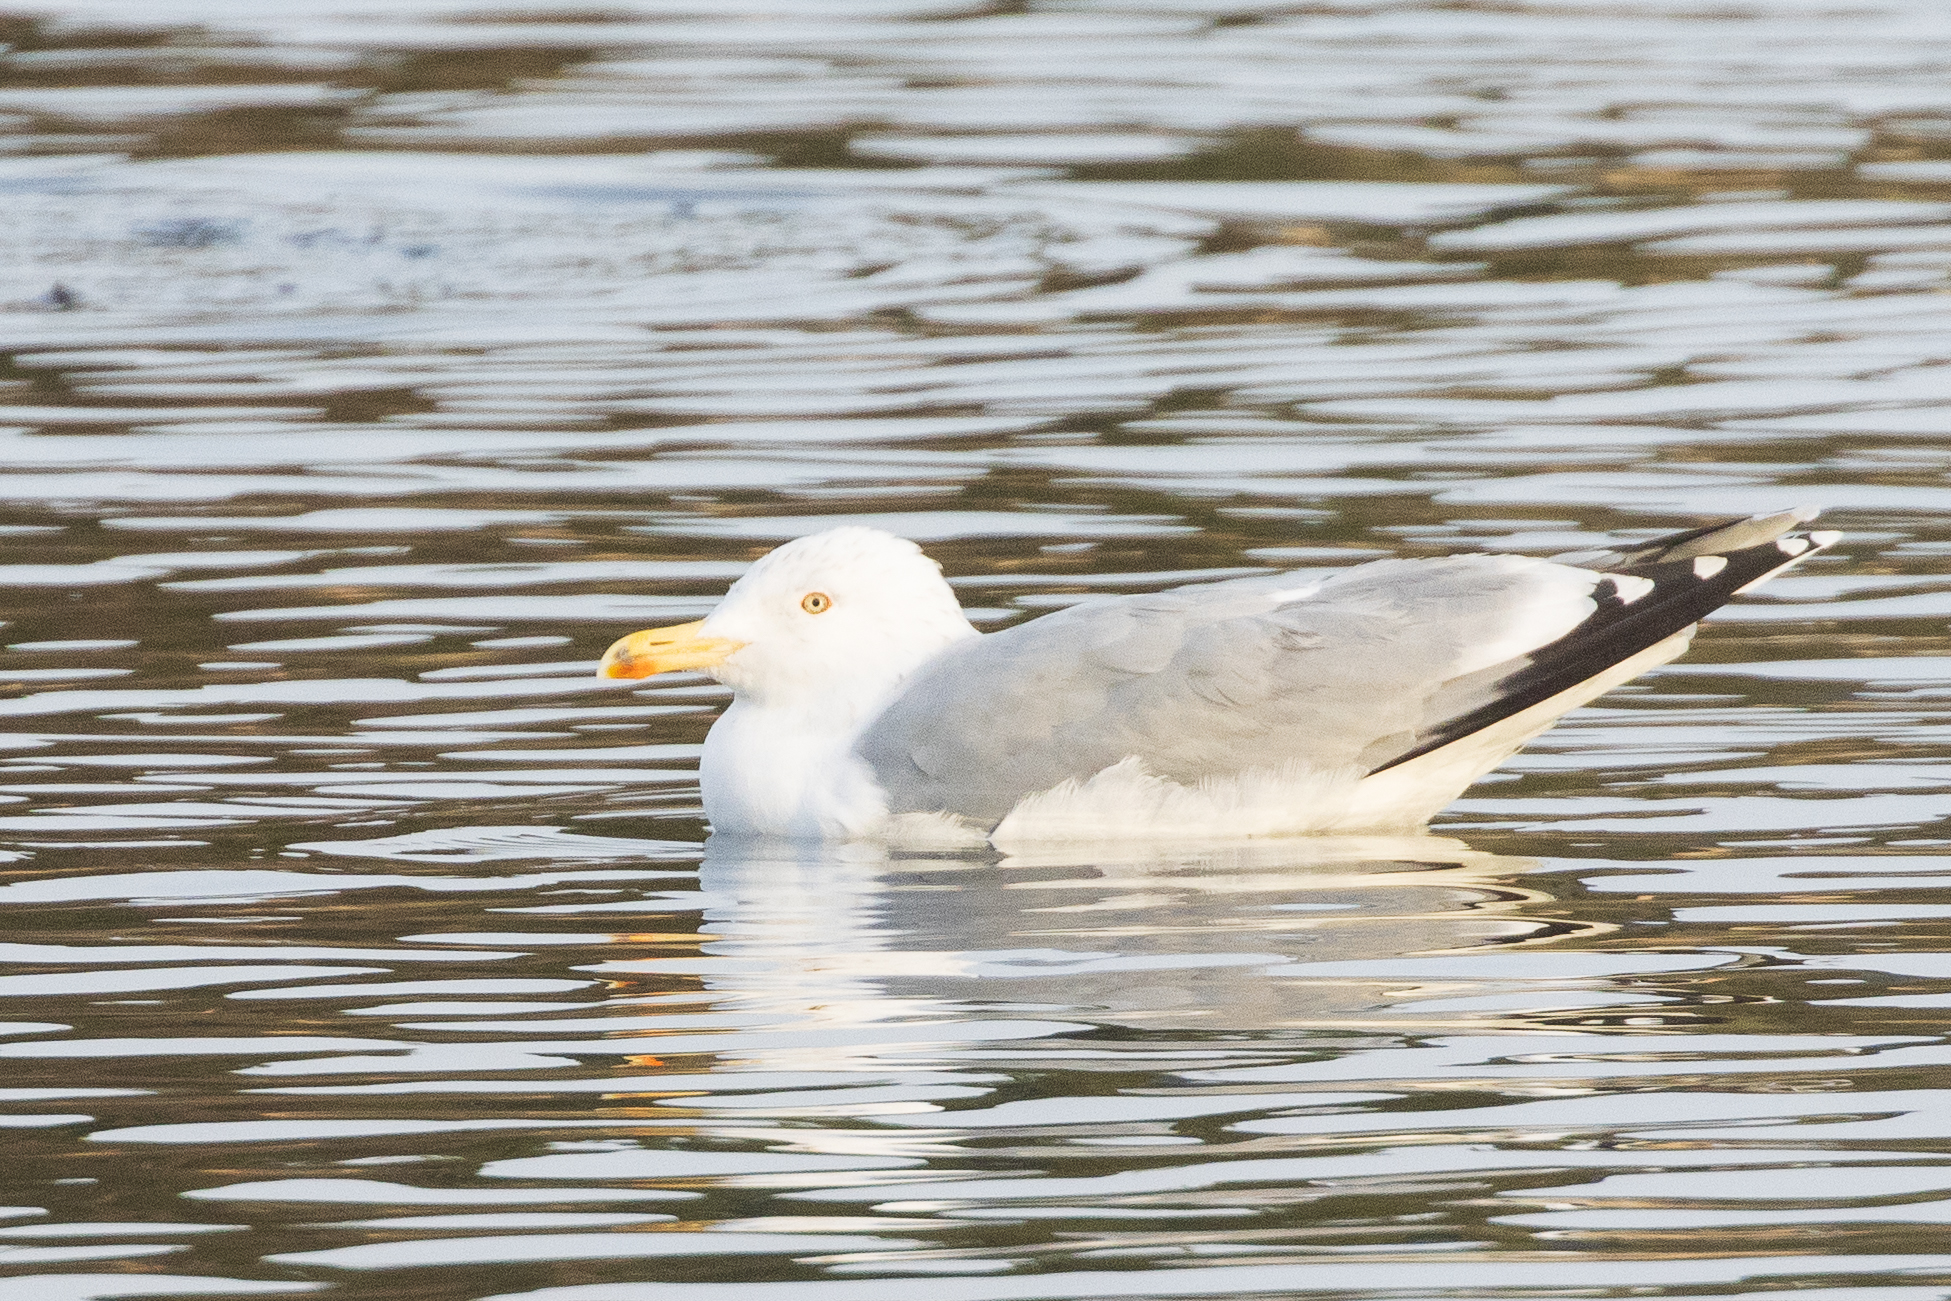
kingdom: Animalia
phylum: Chordata
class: Aves
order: Charadriiformes
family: Laridae
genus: Larus
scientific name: Larus argentatus
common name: Sølvmåge
